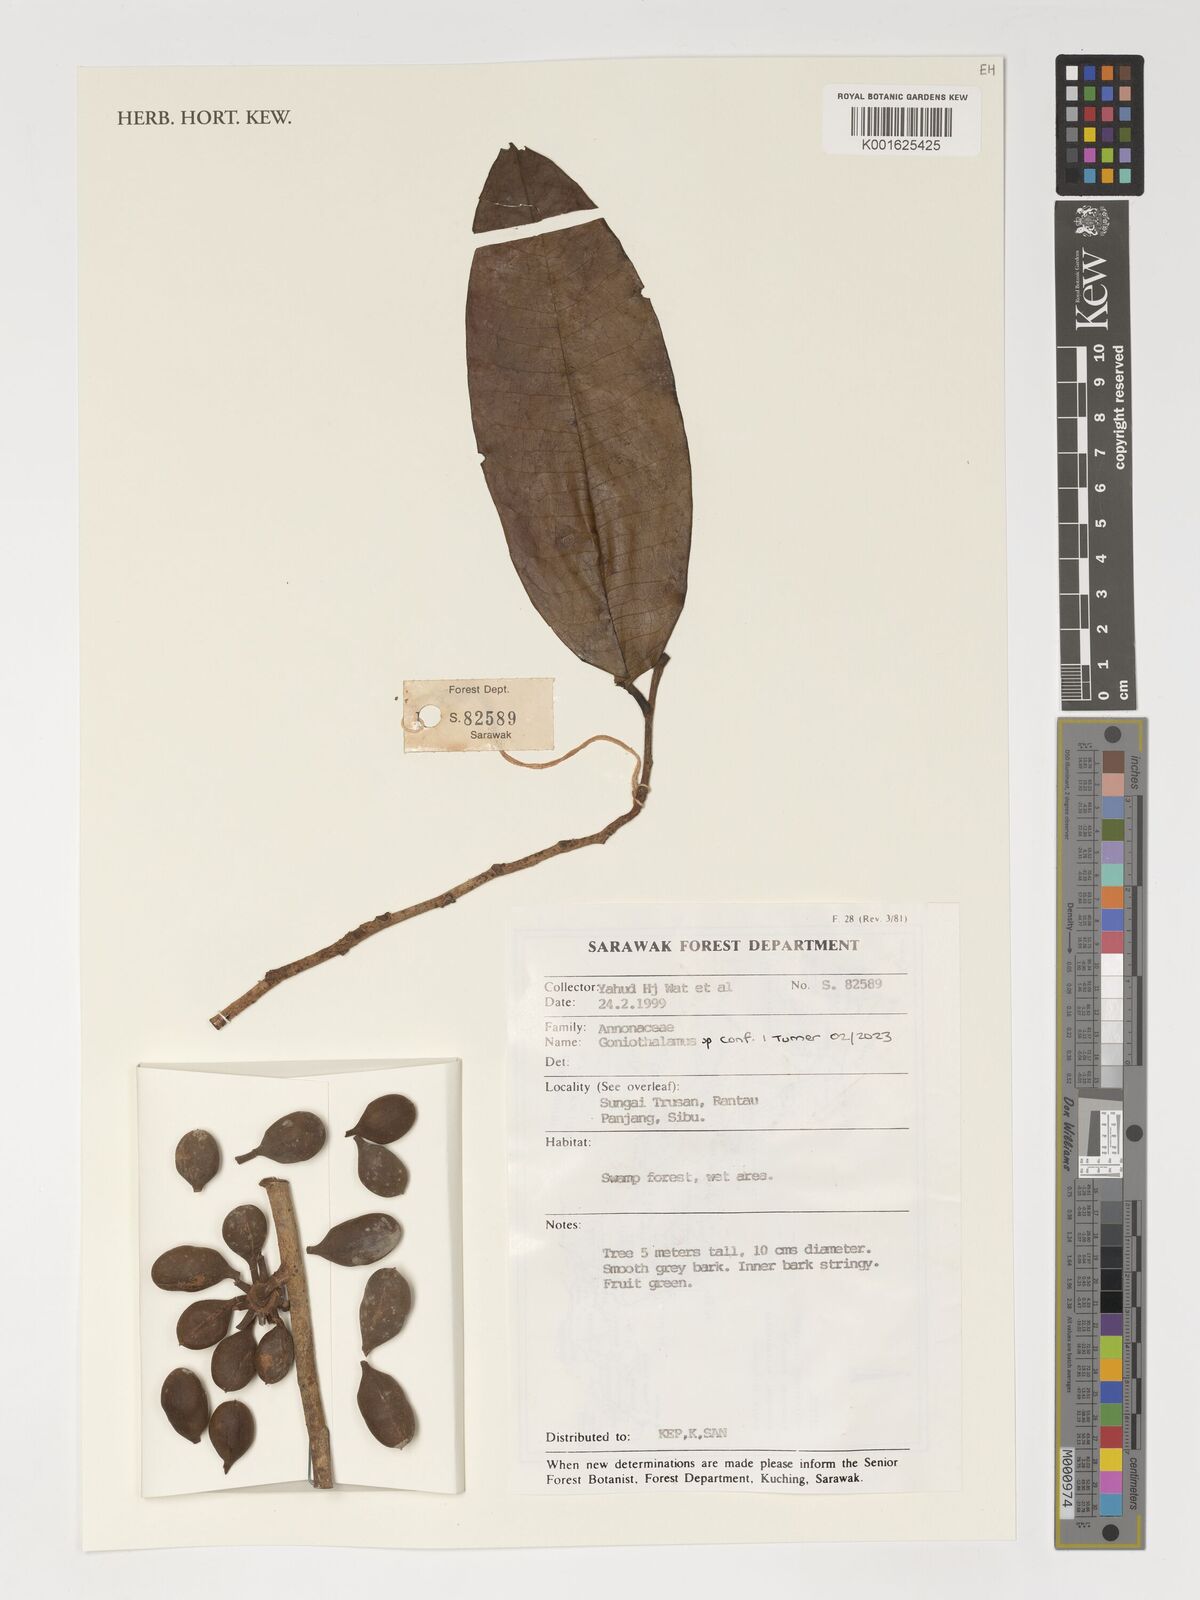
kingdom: Plantae
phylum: Tracheophyta
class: Magnoliopsida
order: Magnoliales
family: Annonaceae
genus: Goniothalamus
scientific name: Goniothalamus
